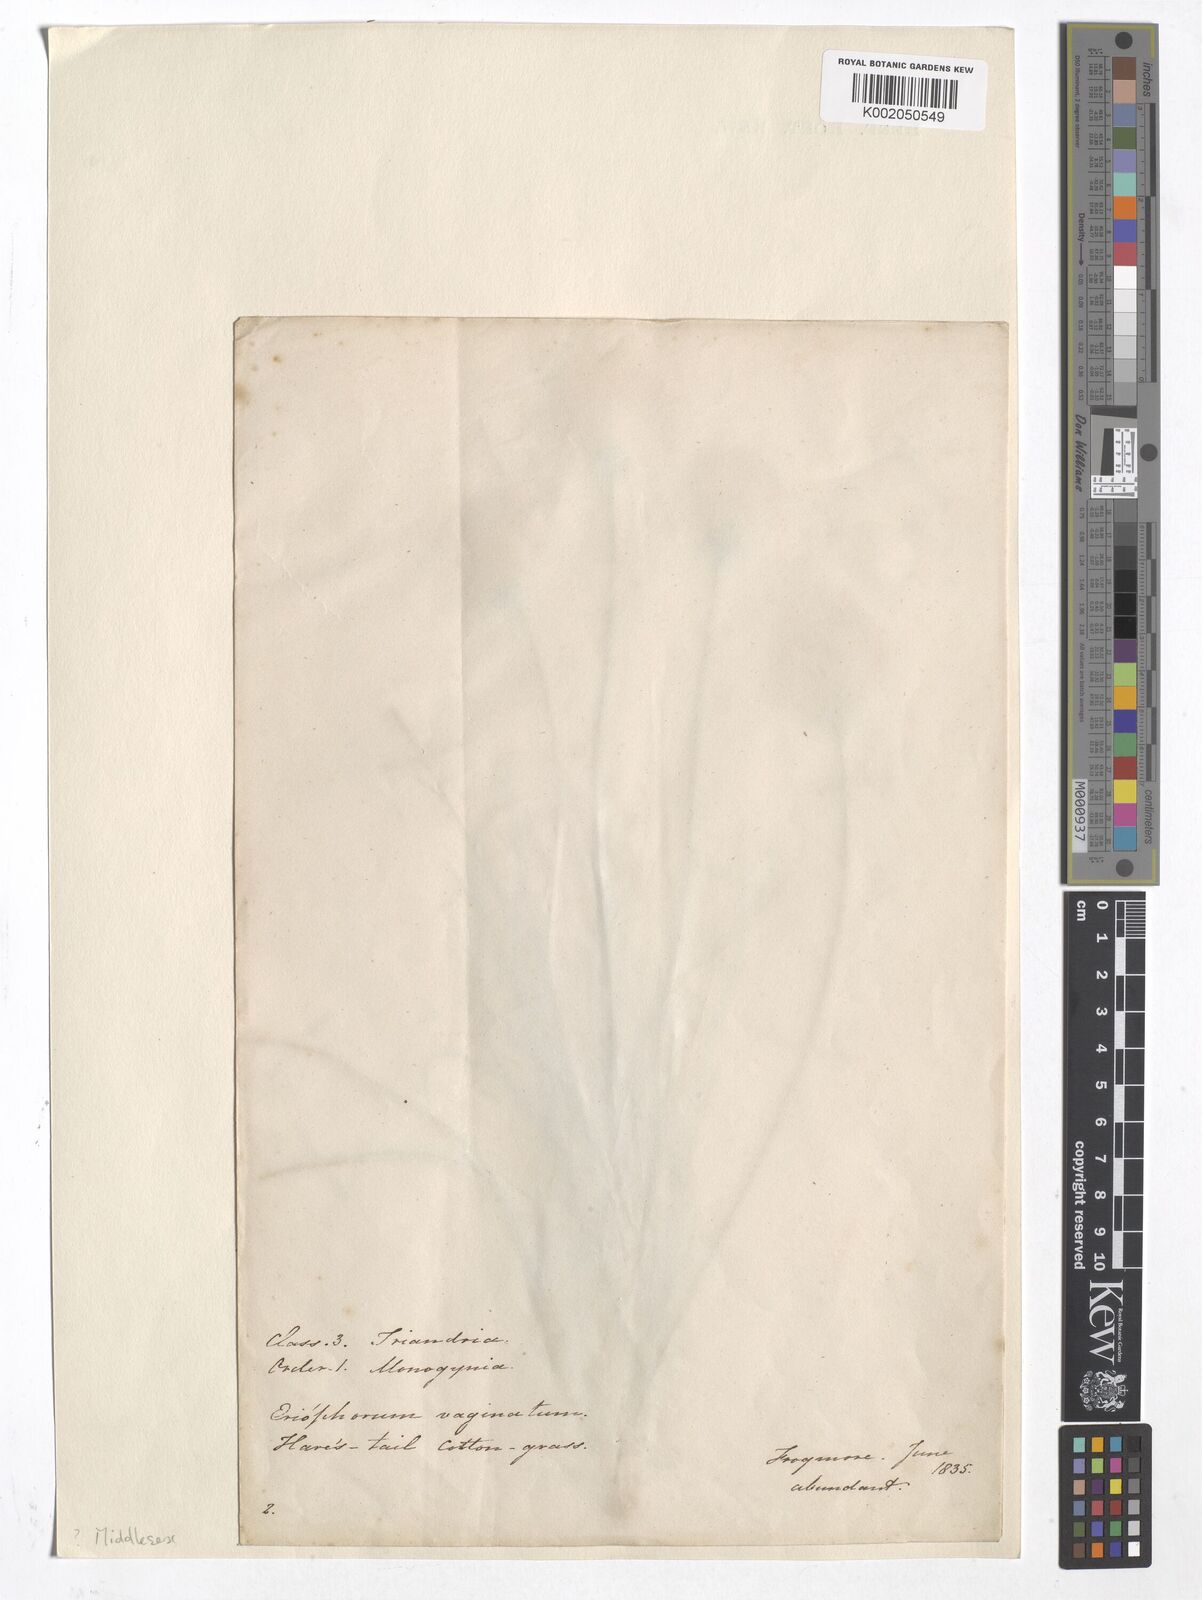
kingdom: Plantae
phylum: Tracheophyta
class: Liliopsida
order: Poales
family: Cyperaceae
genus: Eriophorum
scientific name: Eriophorum vaginatum
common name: Hare's-tail cottongrass
